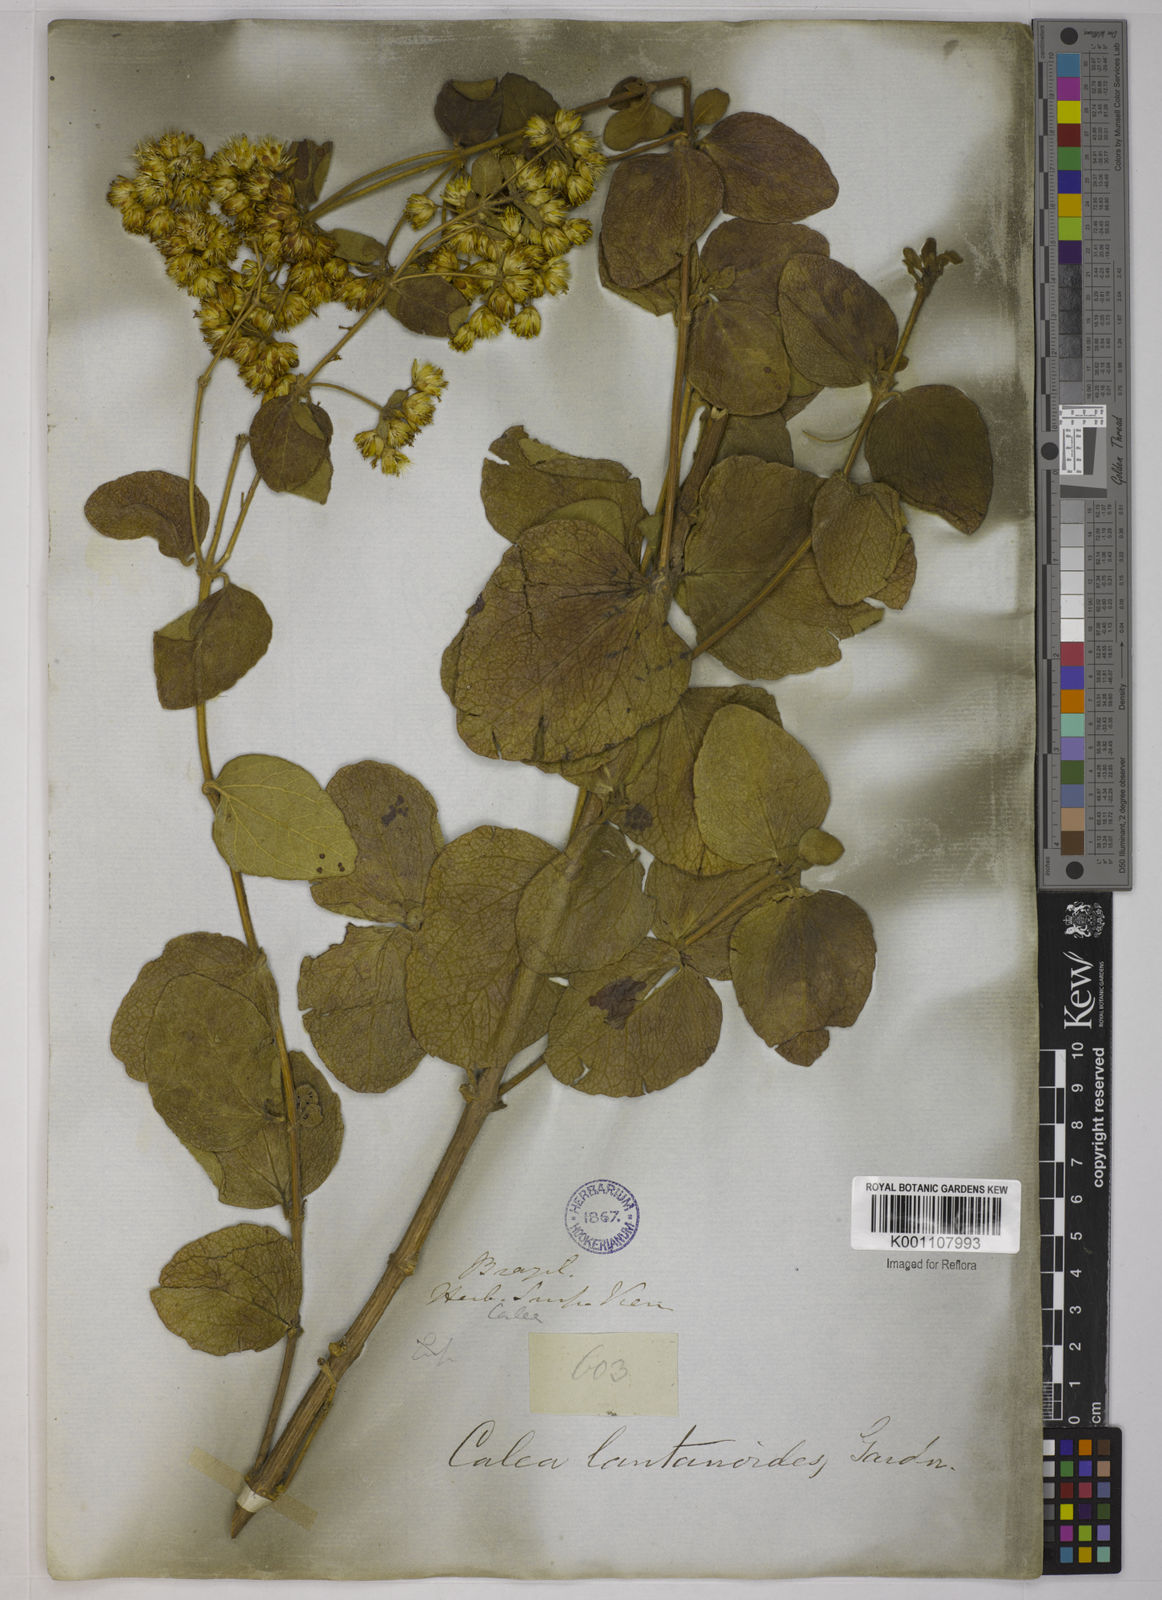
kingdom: Plantae
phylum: Tracheophyta
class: Magnoliopsida
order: Asterales
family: Asteraceae
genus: Calea
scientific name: Calea lantanoides
